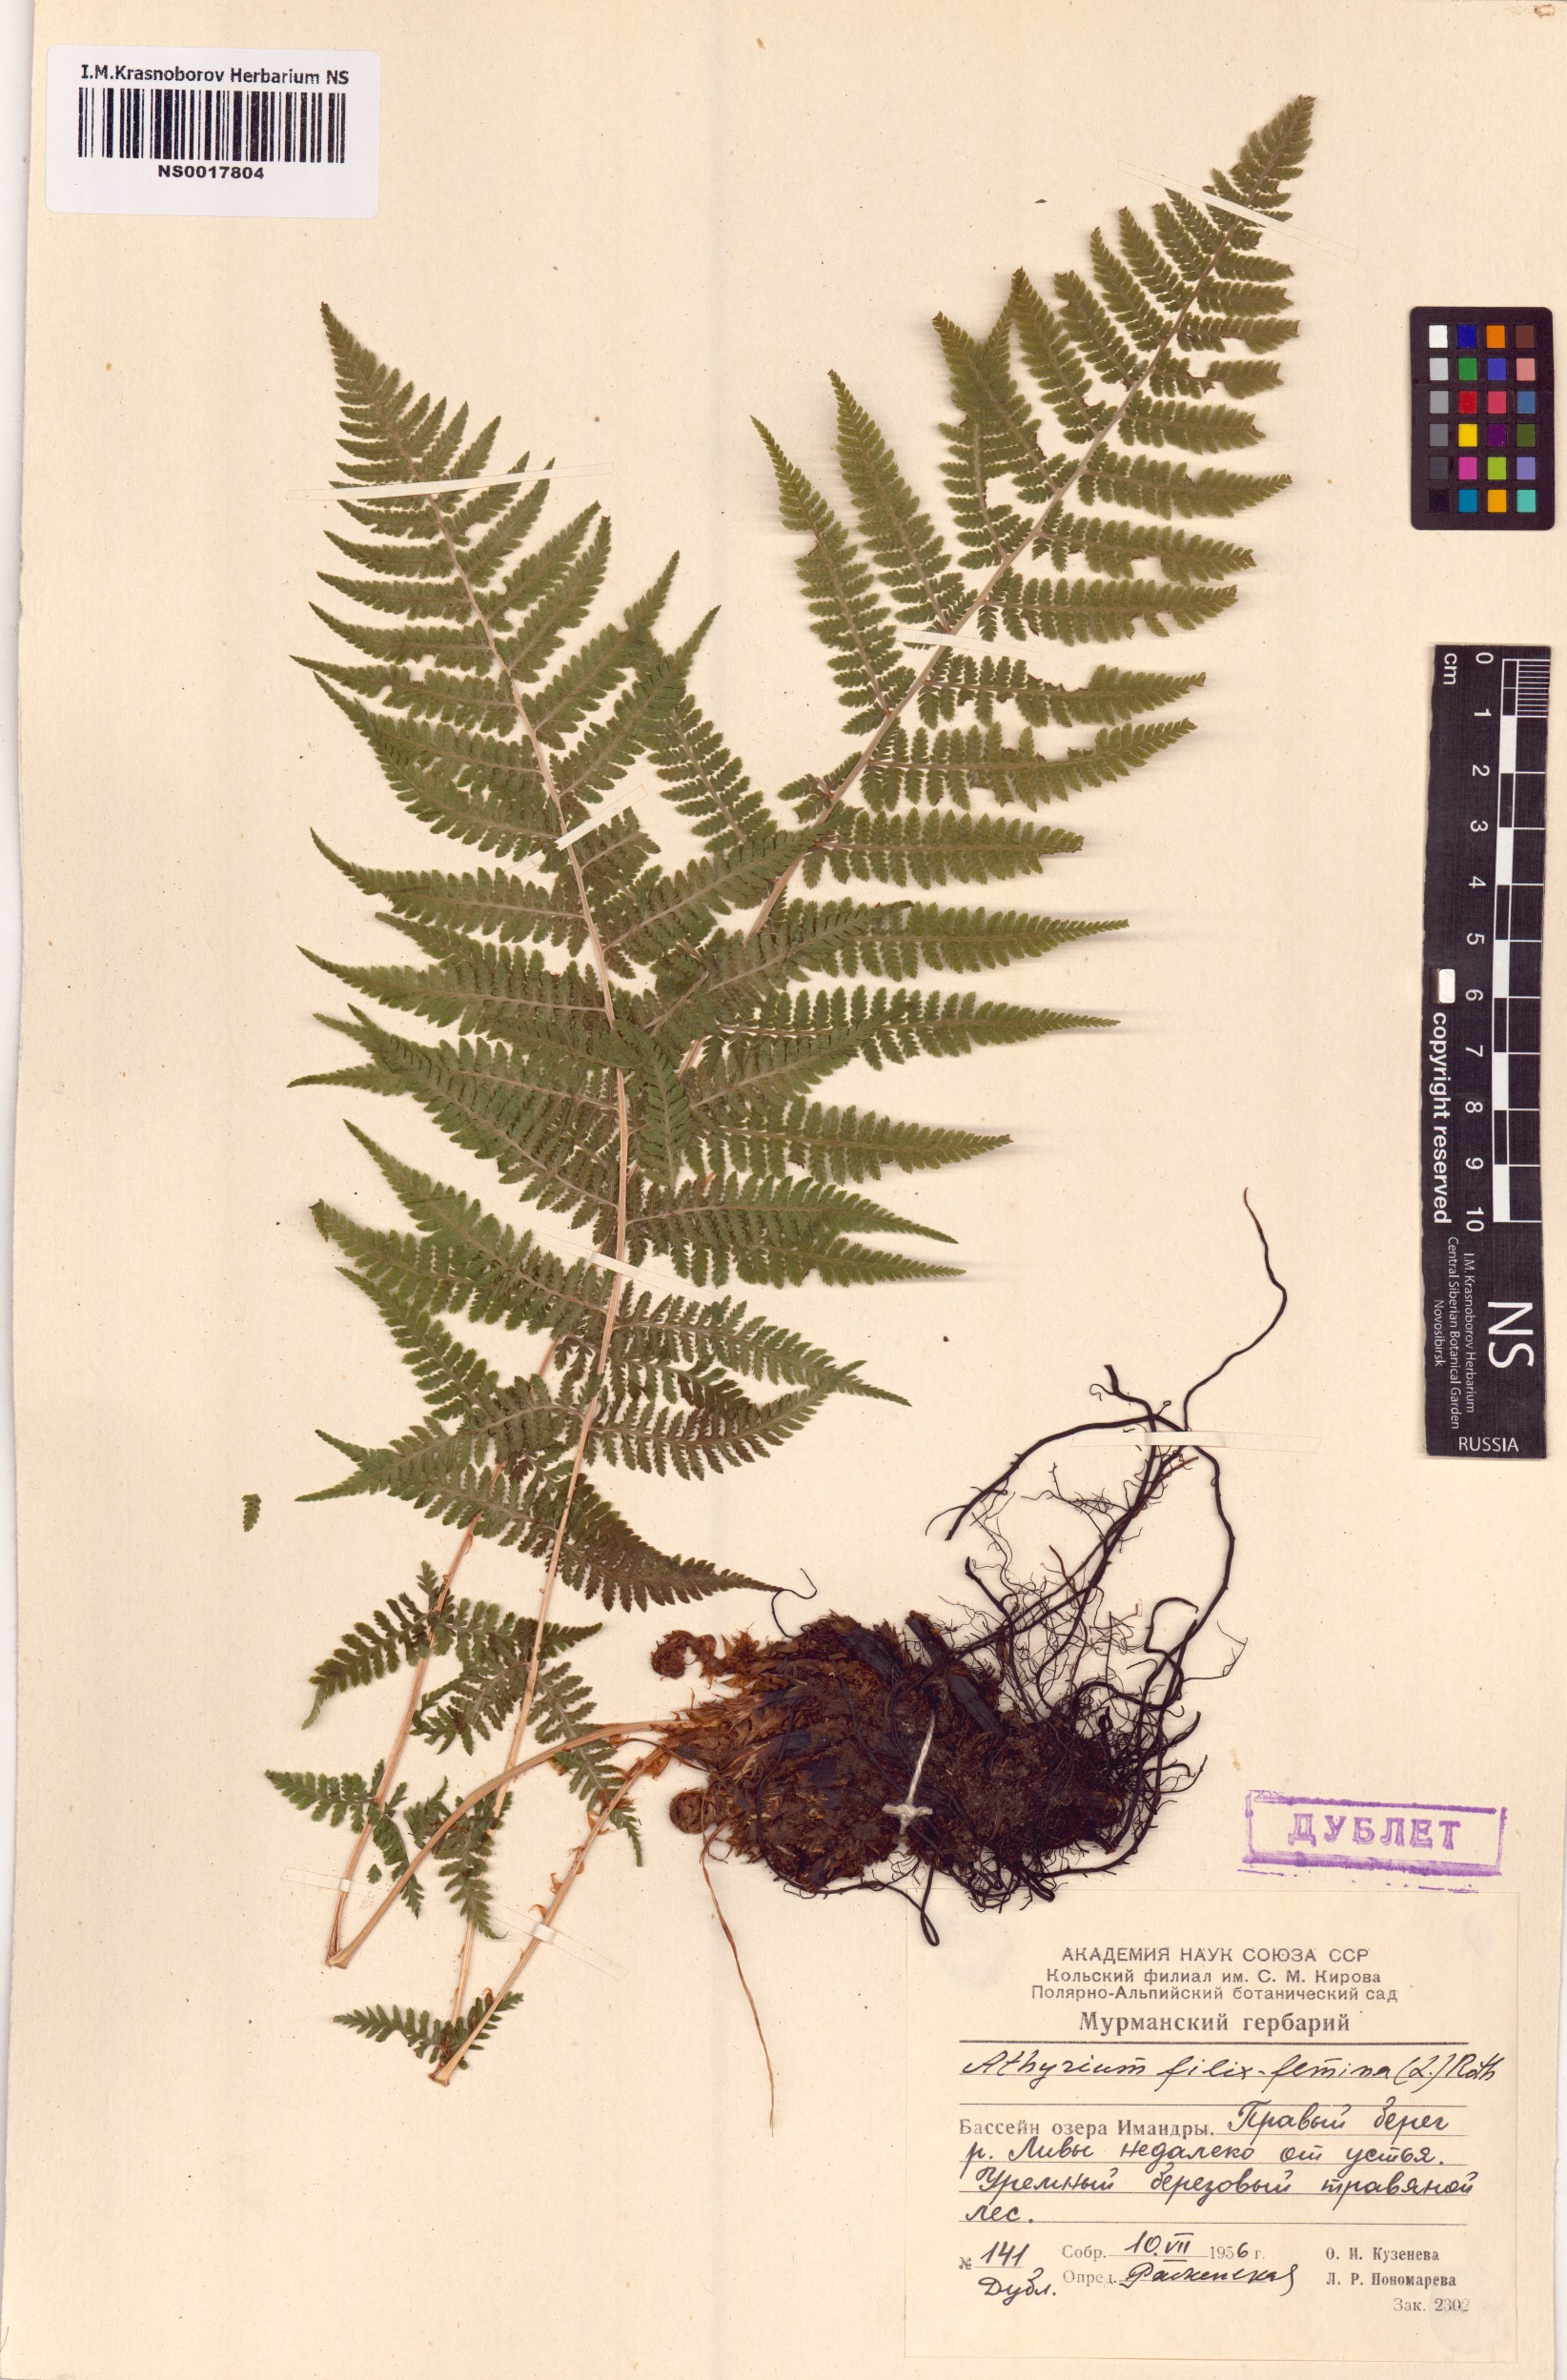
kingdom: Plantae
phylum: Tracheophyta
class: Polypodiopsida
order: Polypodiales
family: Athyriaceae
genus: Athyrium
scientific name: Athyrium filix-femina
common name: Lady fern
